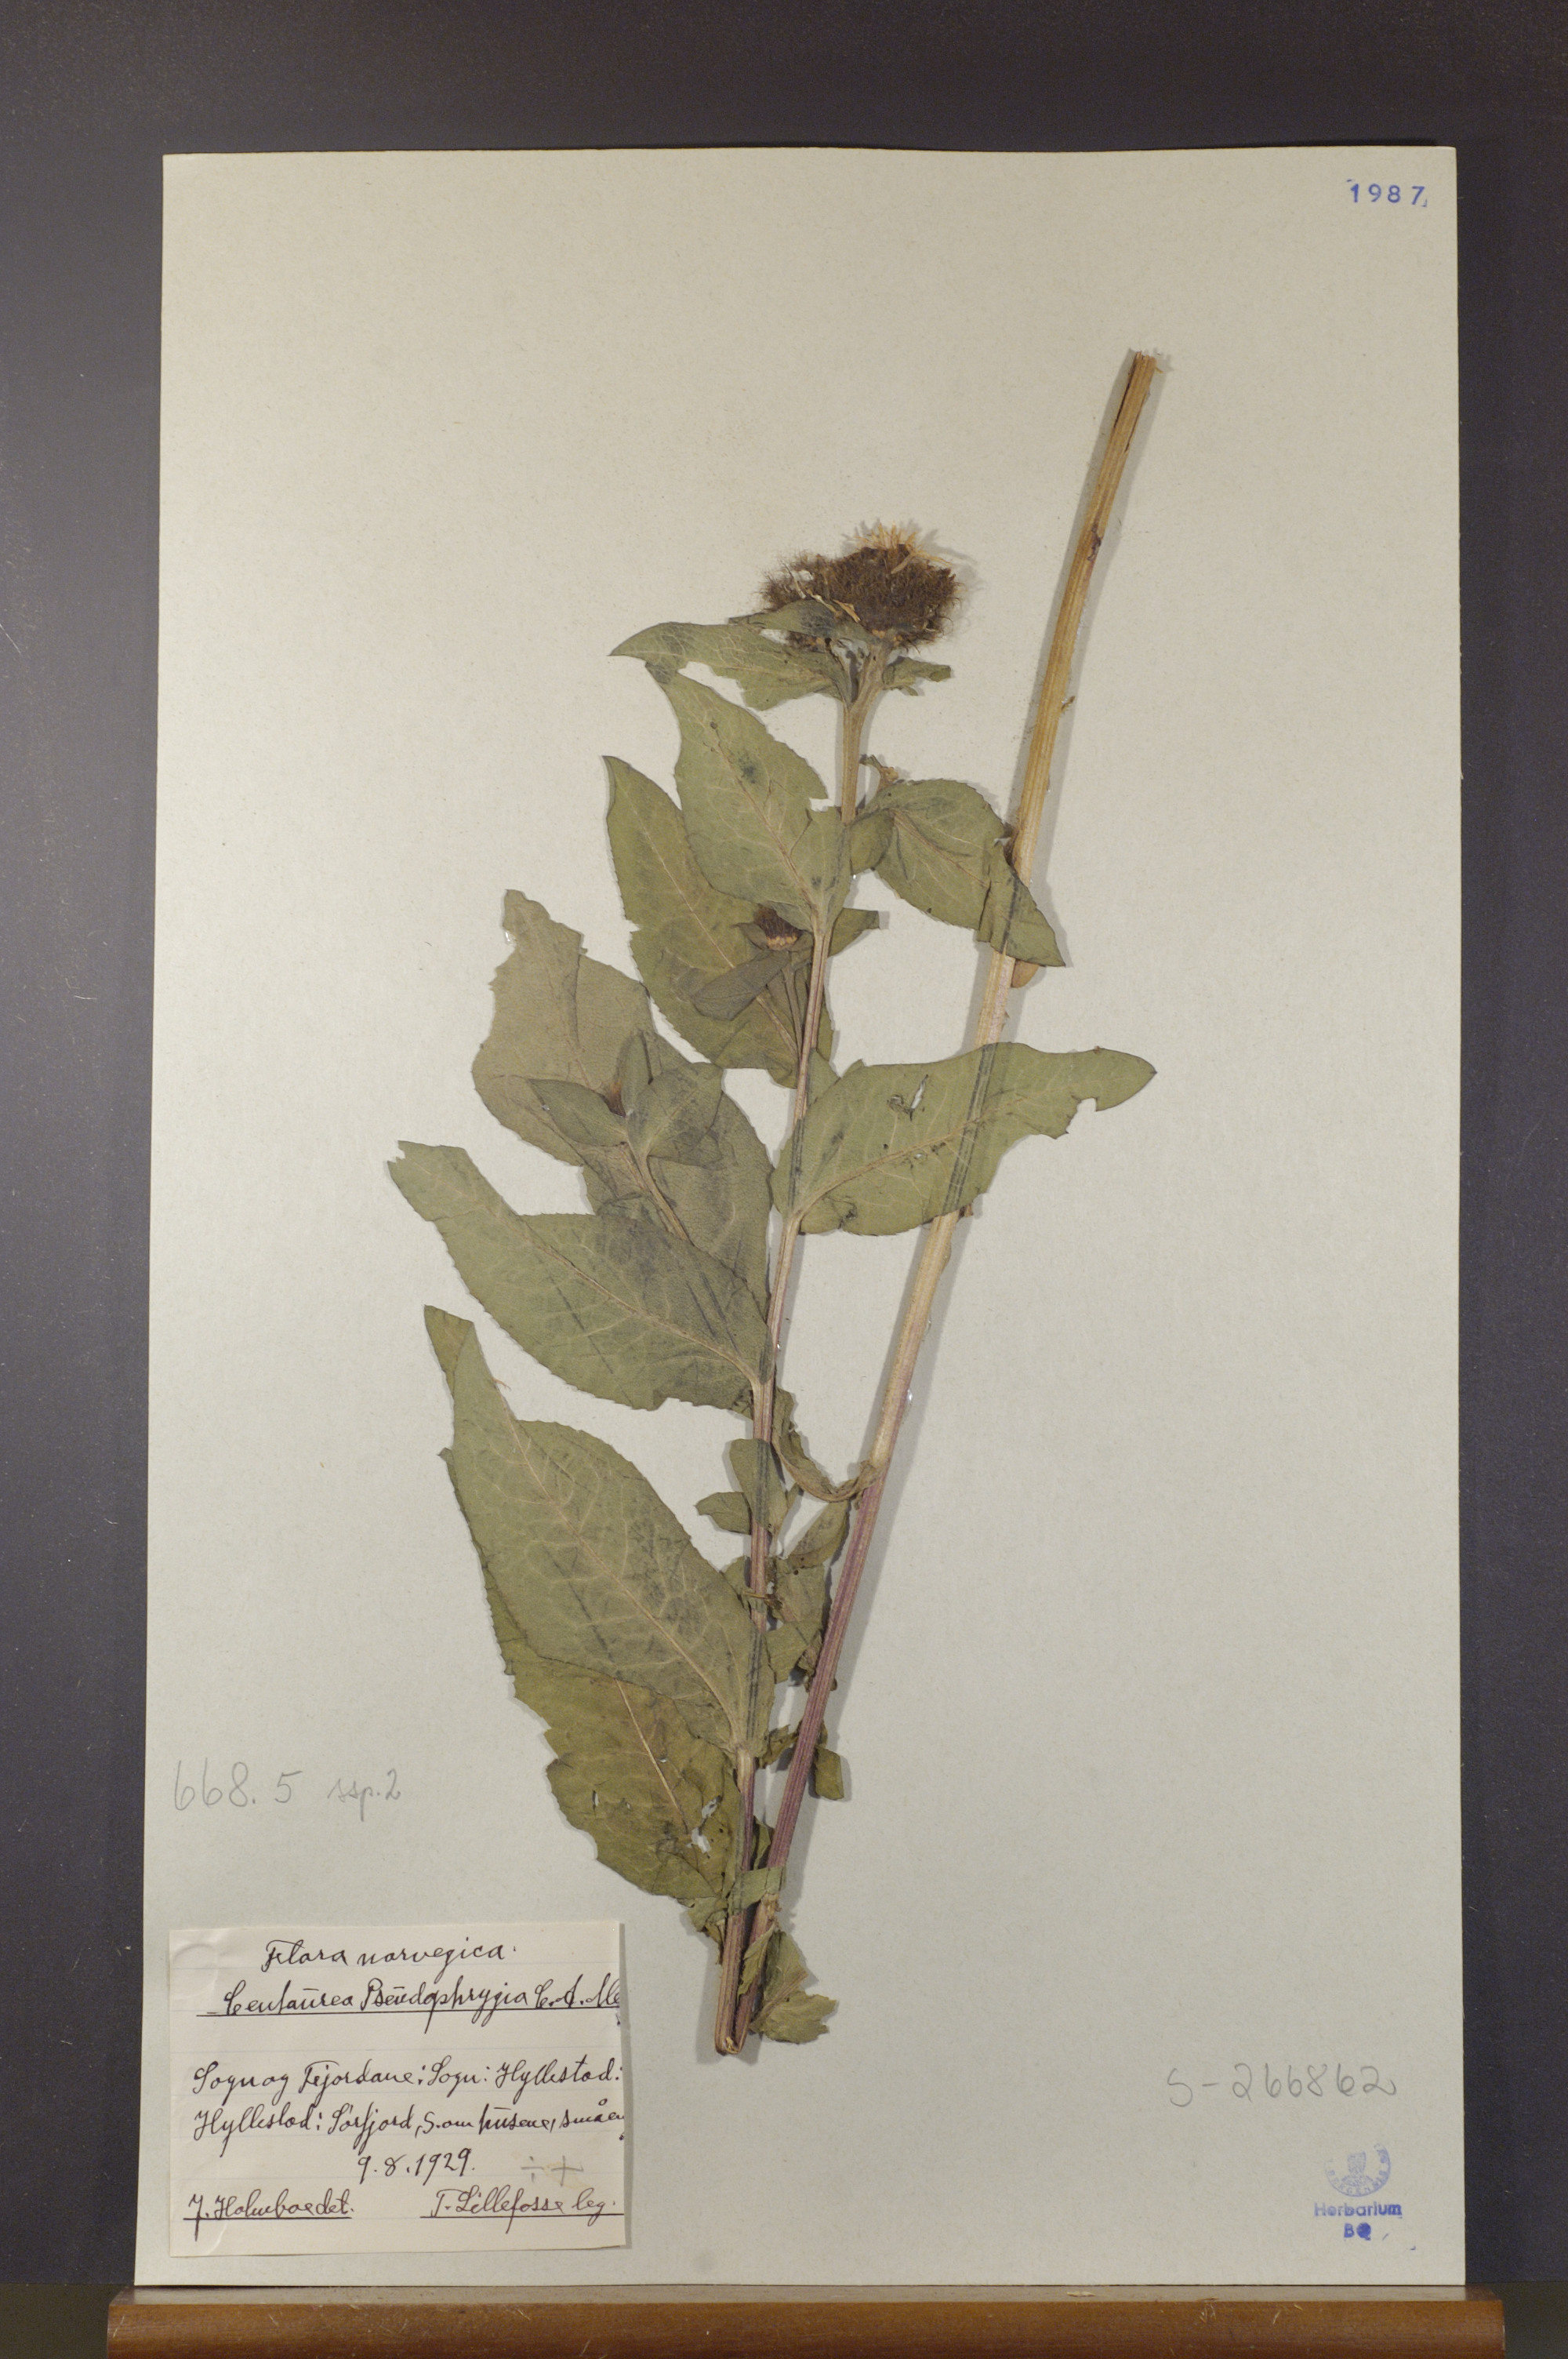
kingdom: Plantae
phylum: Tracheophyta
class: Magnoliopsida
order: Asterales
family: Asteraceae
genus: Centaurea
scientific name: Centaurea pseudophrygia
